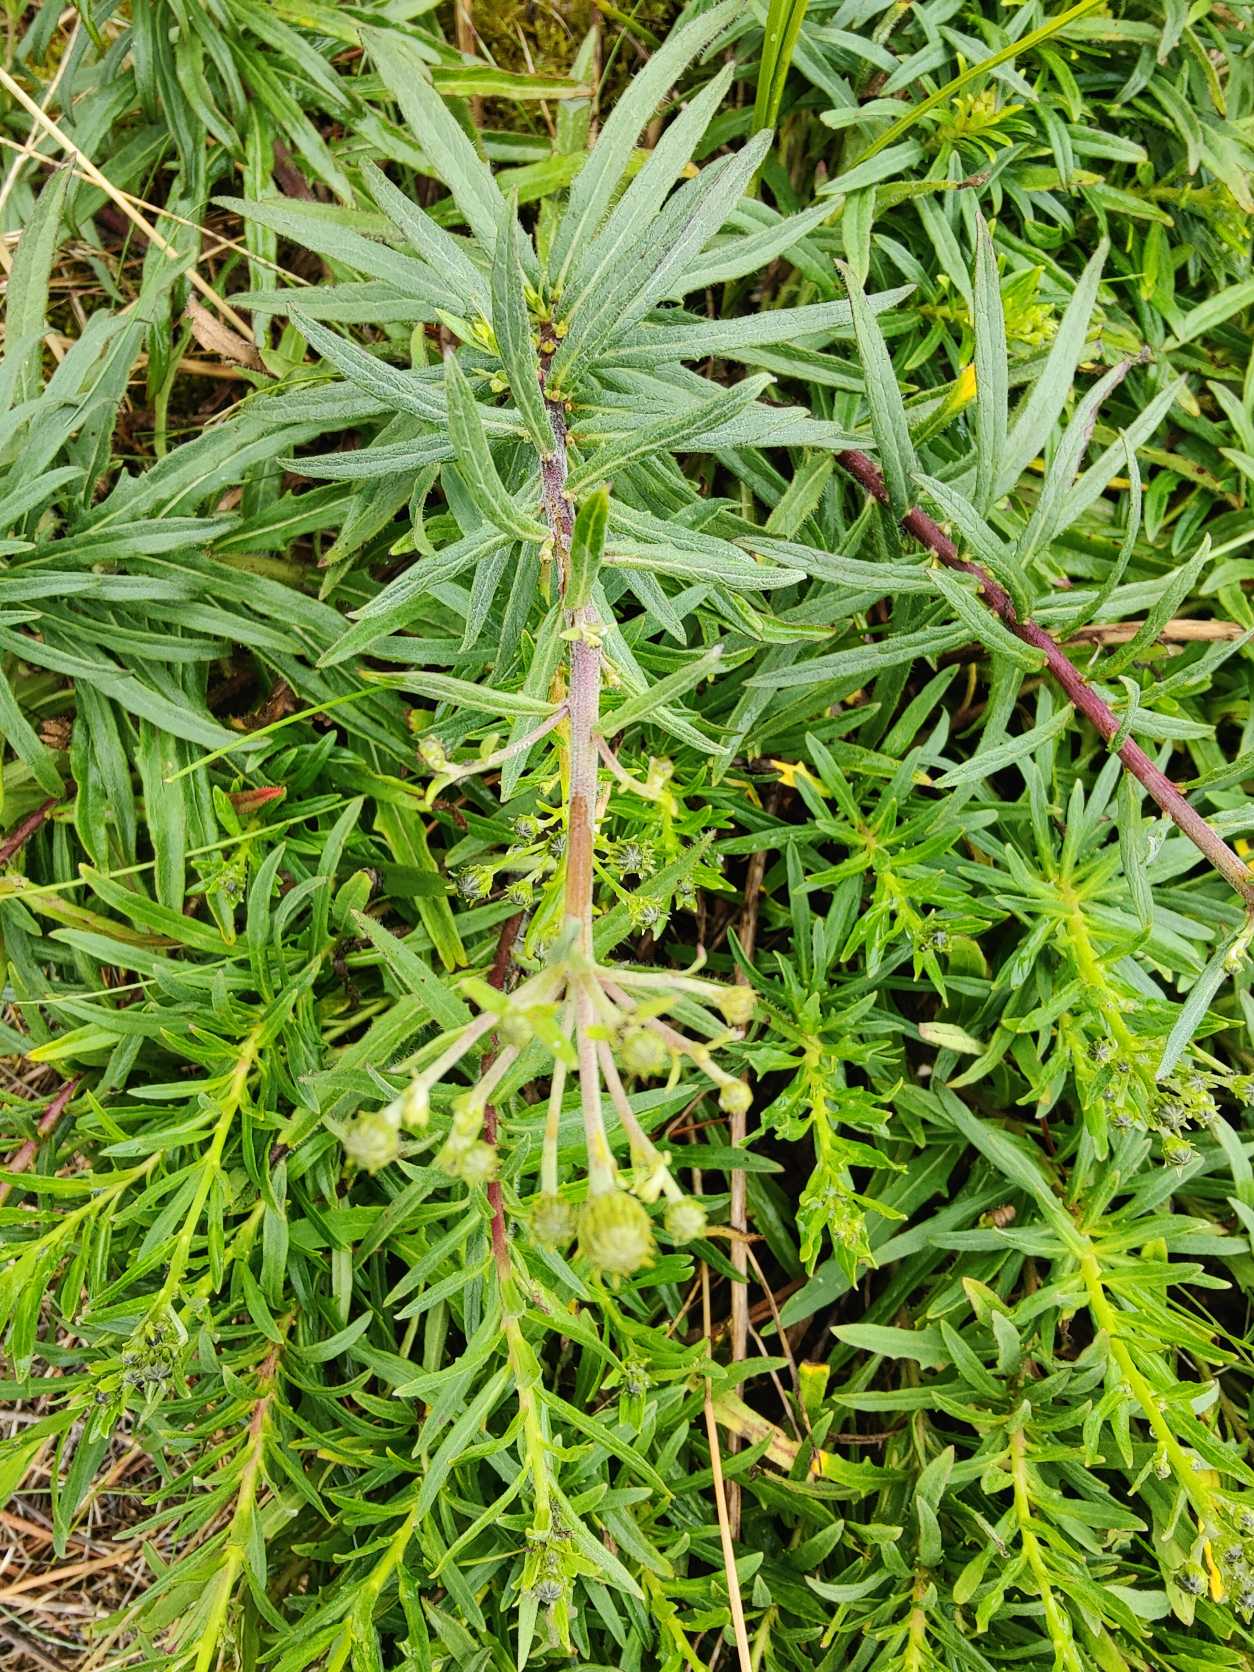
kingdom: Plantae
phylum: Tracheophyta
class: Magnoliopsida
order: Asterales
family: Asteraceae
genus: Hieracium
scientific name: Hieracium umbellatum
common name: Smalbladet høgeurt
